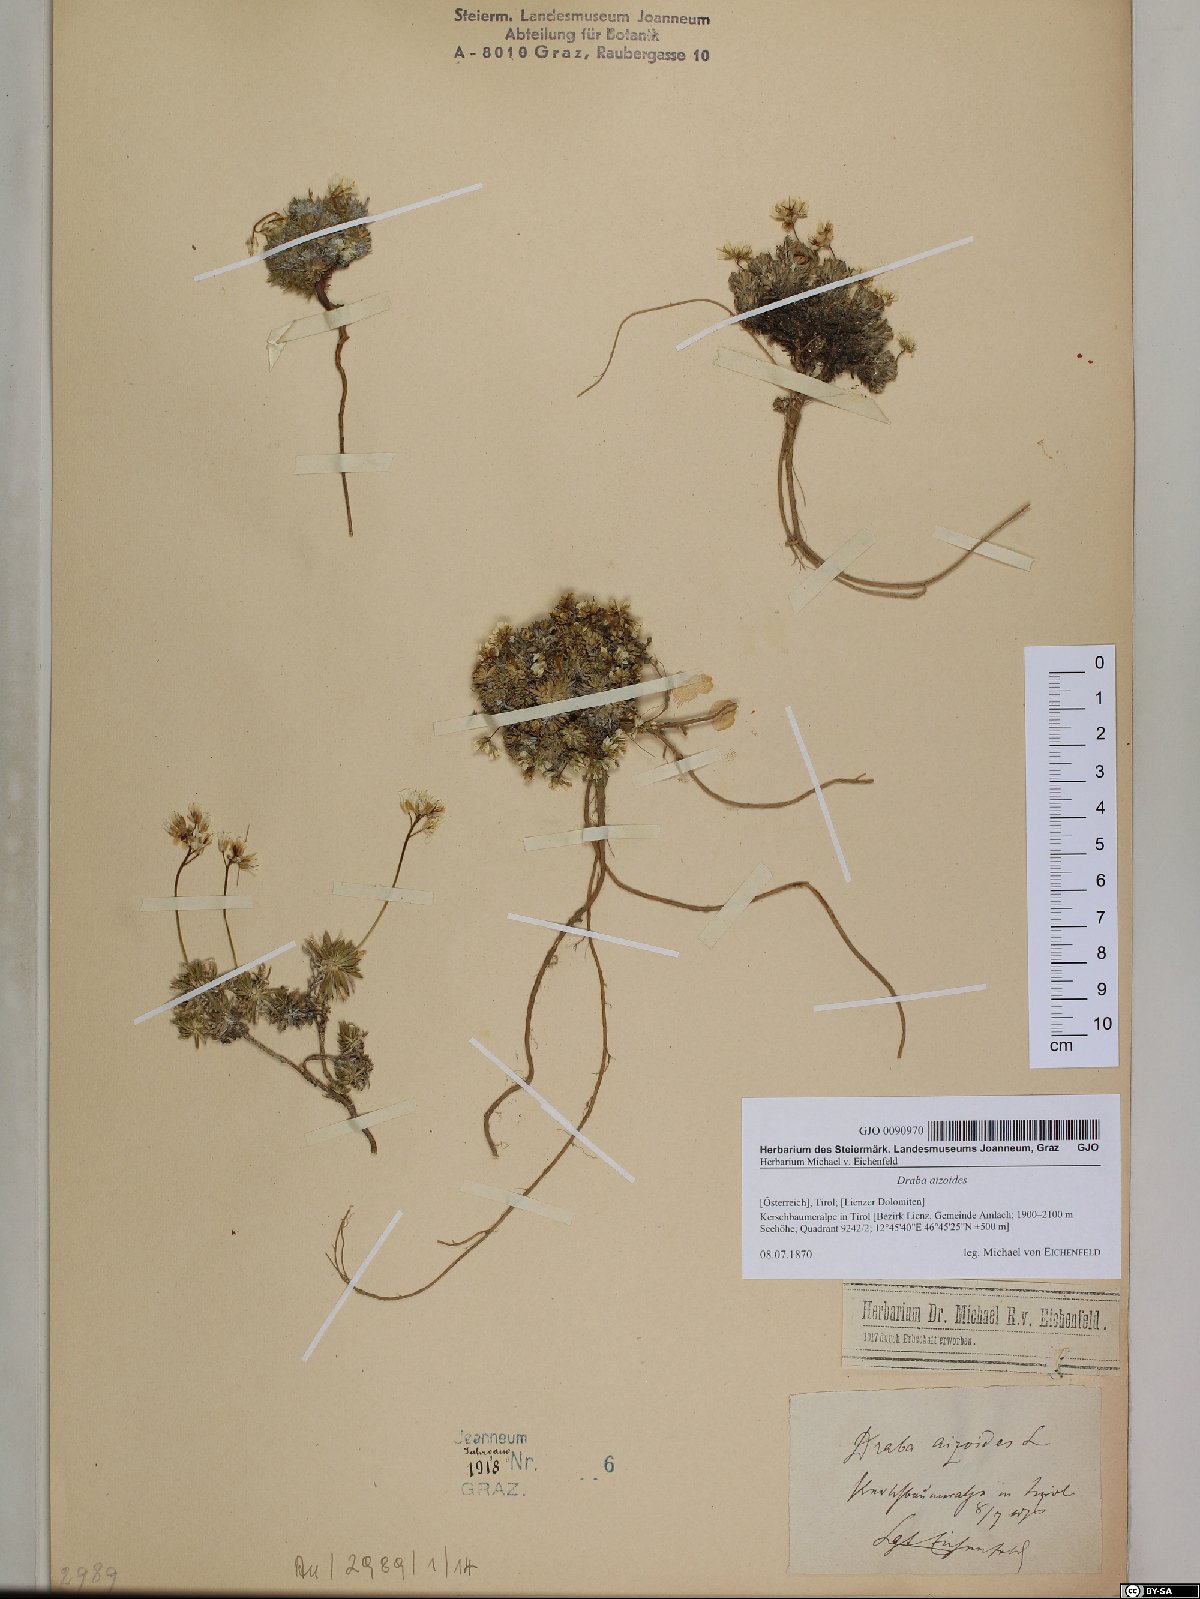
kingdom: Plantae
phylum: Tracheophyta
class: Magnoliopsida
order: Brassicales
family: Brassicaceae
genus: Draba
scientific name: Draba aizoides
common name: Yellow whitlowgrass
